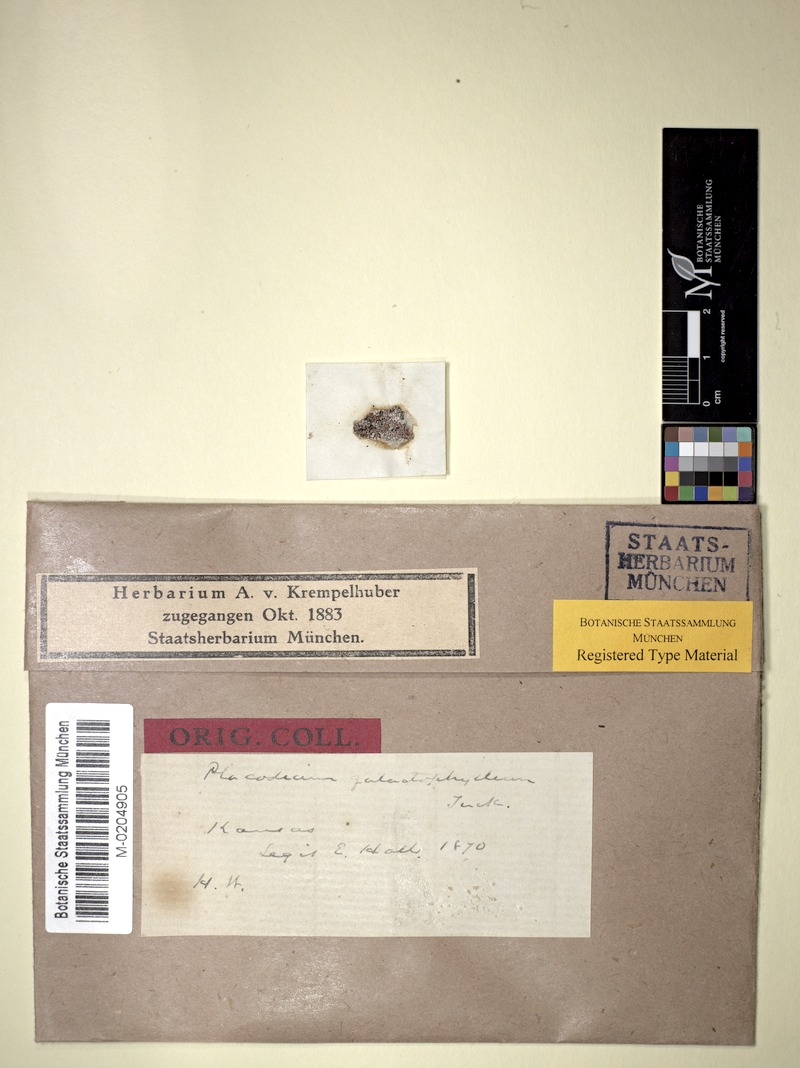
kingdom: Fungi
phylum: Ascomycota
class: Lecanoromycetes
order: Teloschistales
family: Teloschistaceae
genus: Squamulea
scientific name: Squamulea galactophylla
